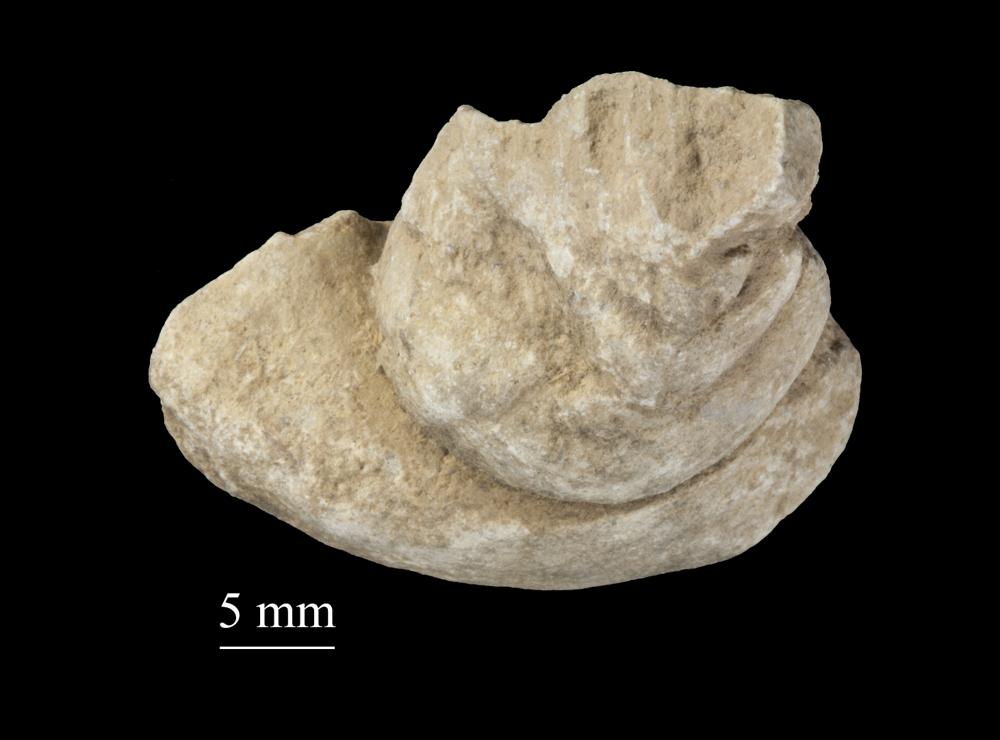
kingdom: Animalia
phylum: Mollusca
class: Gastropoda
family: Lophospiridae
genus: Ruedemannia
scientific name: Ruedemannia Worthenia borkholmiensis
